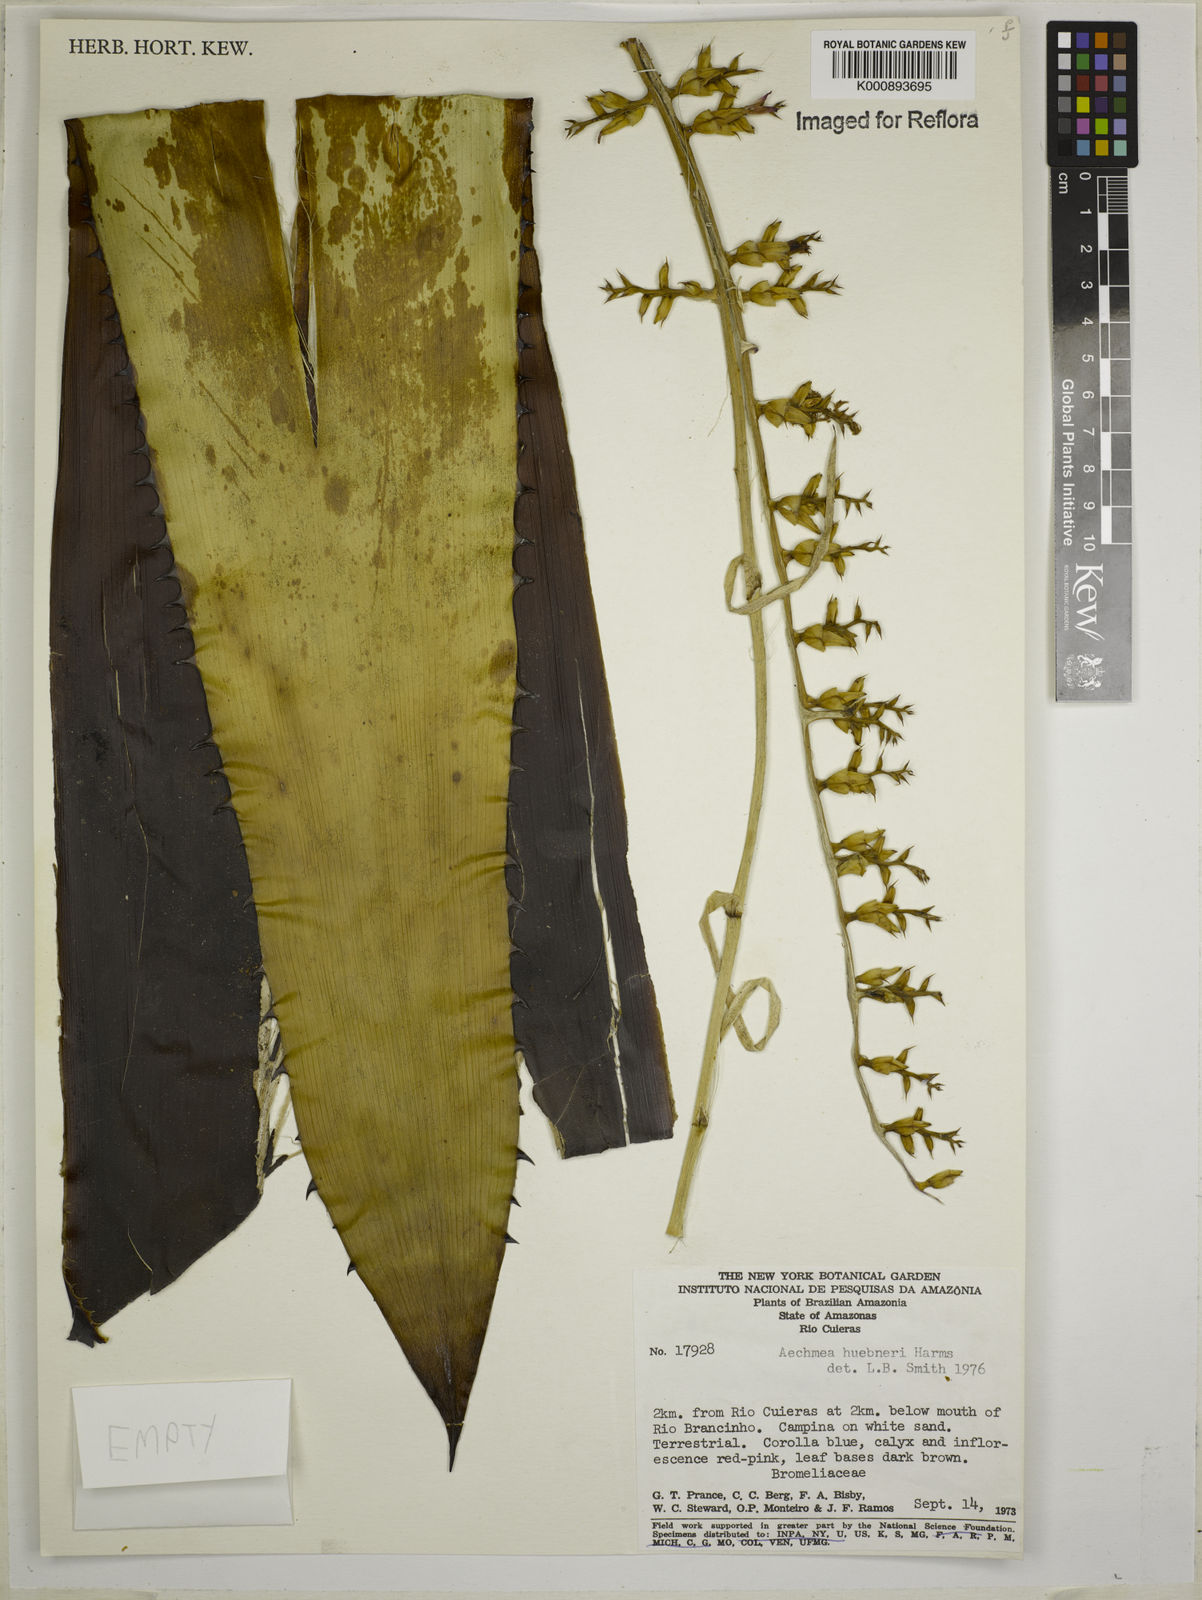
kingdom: Plantae
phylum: Tracheophyta
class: Liliopsida
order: Poales
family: Bromeliaceae
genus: Aechmea
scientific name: Aechmea huebneri
